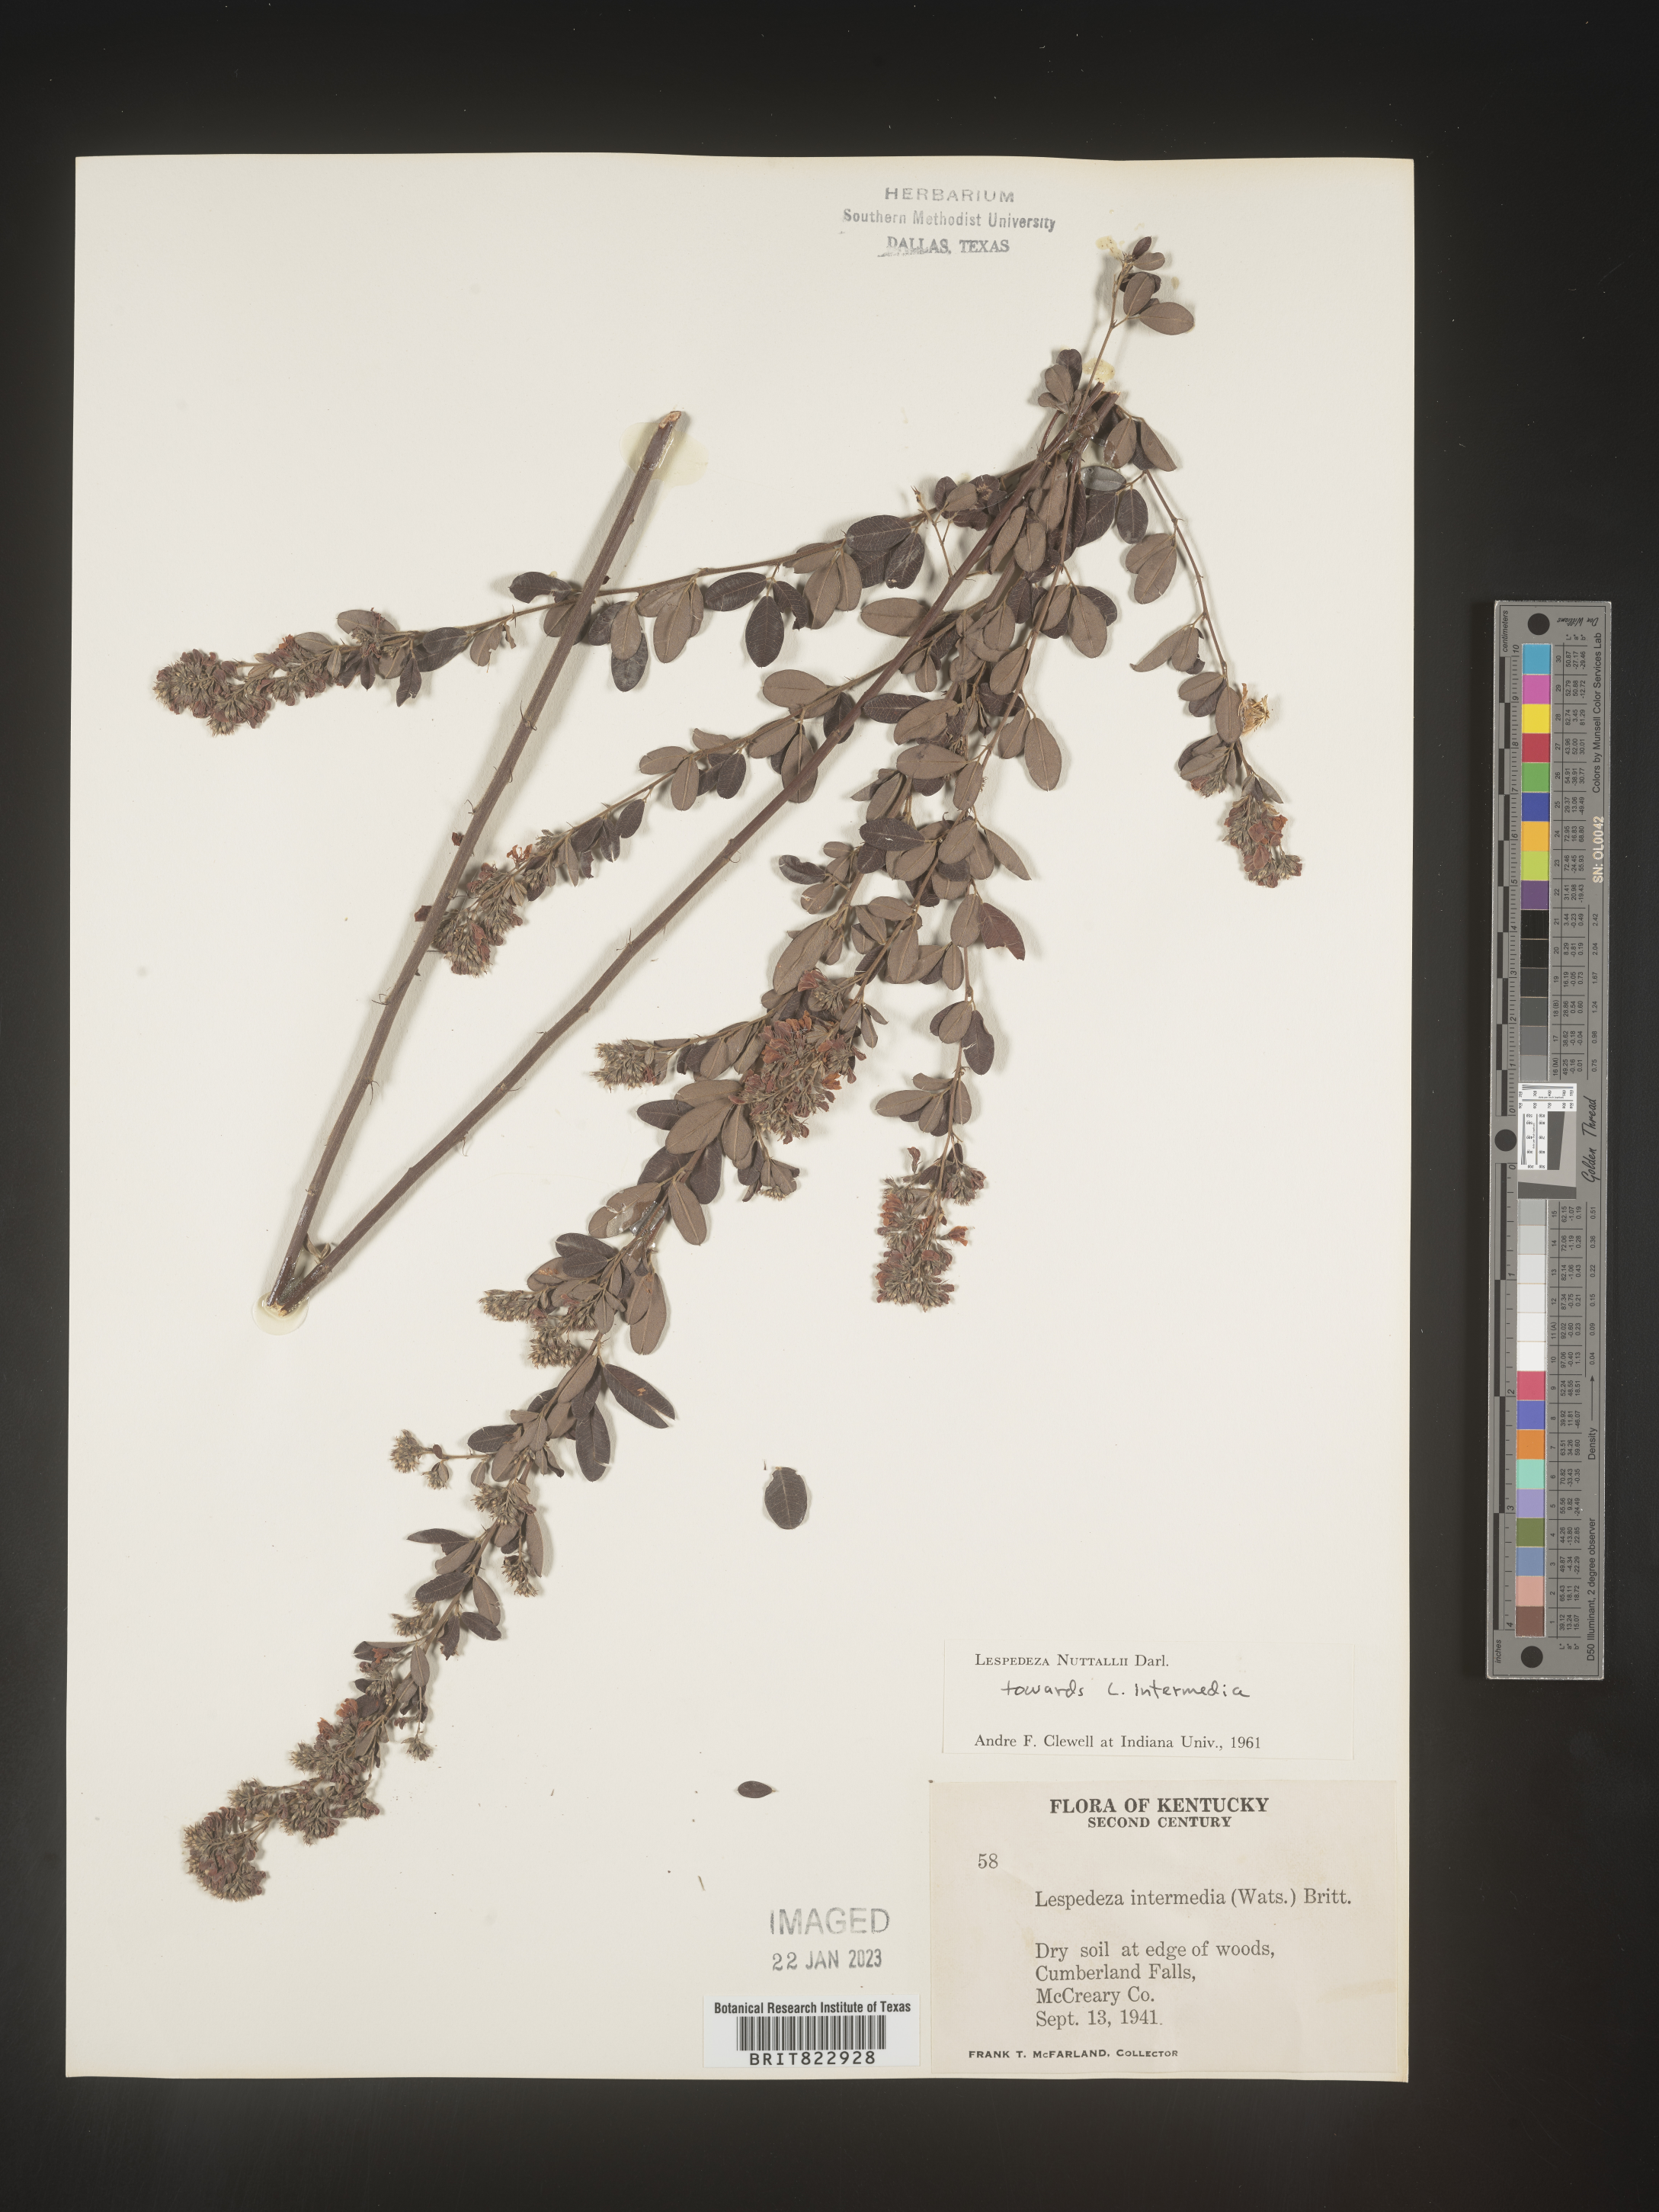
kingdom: Plantae
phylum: Tracheophyta
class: Magnoliopsida
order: Fabales
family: Fabaceae
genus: Lespedeza
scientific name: Lespedeza
